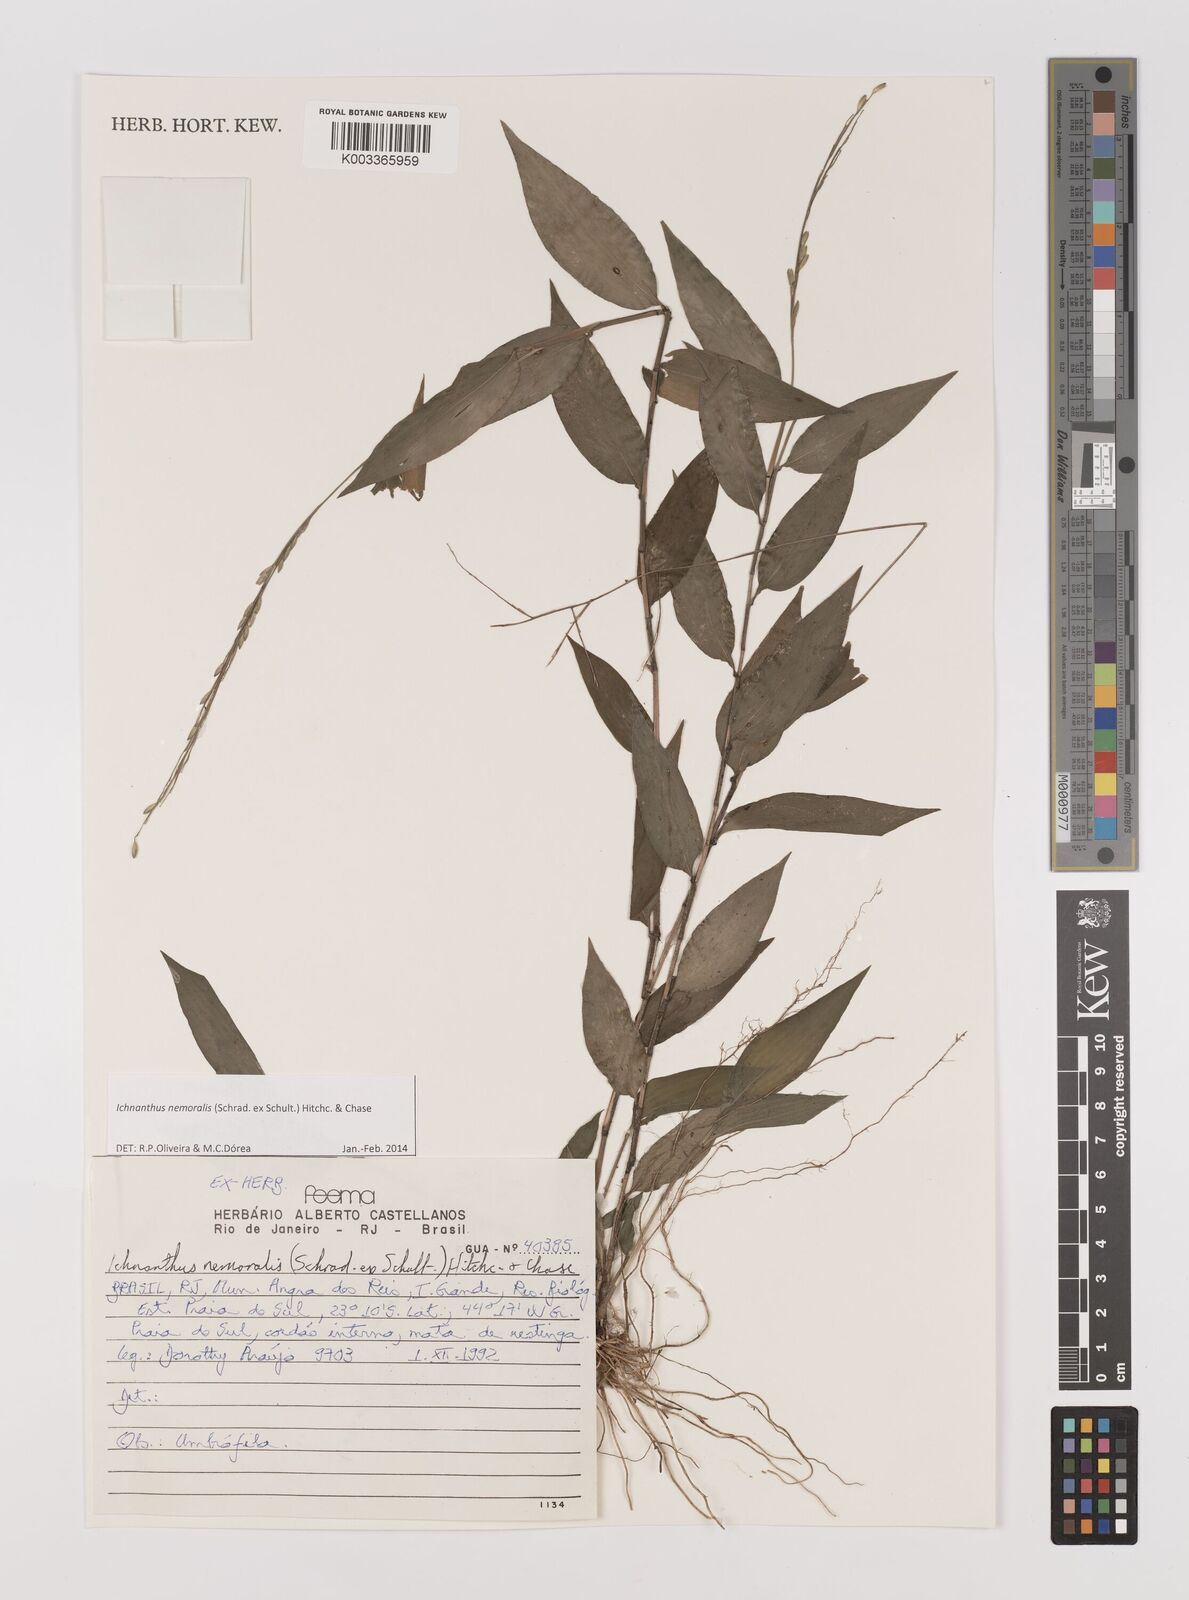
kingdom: Plantae
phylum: Tracheophyta
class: Liliopsida
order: Poales
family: Poaceae
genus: Ichnanthus
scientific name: Ichnanthus nemoralis
